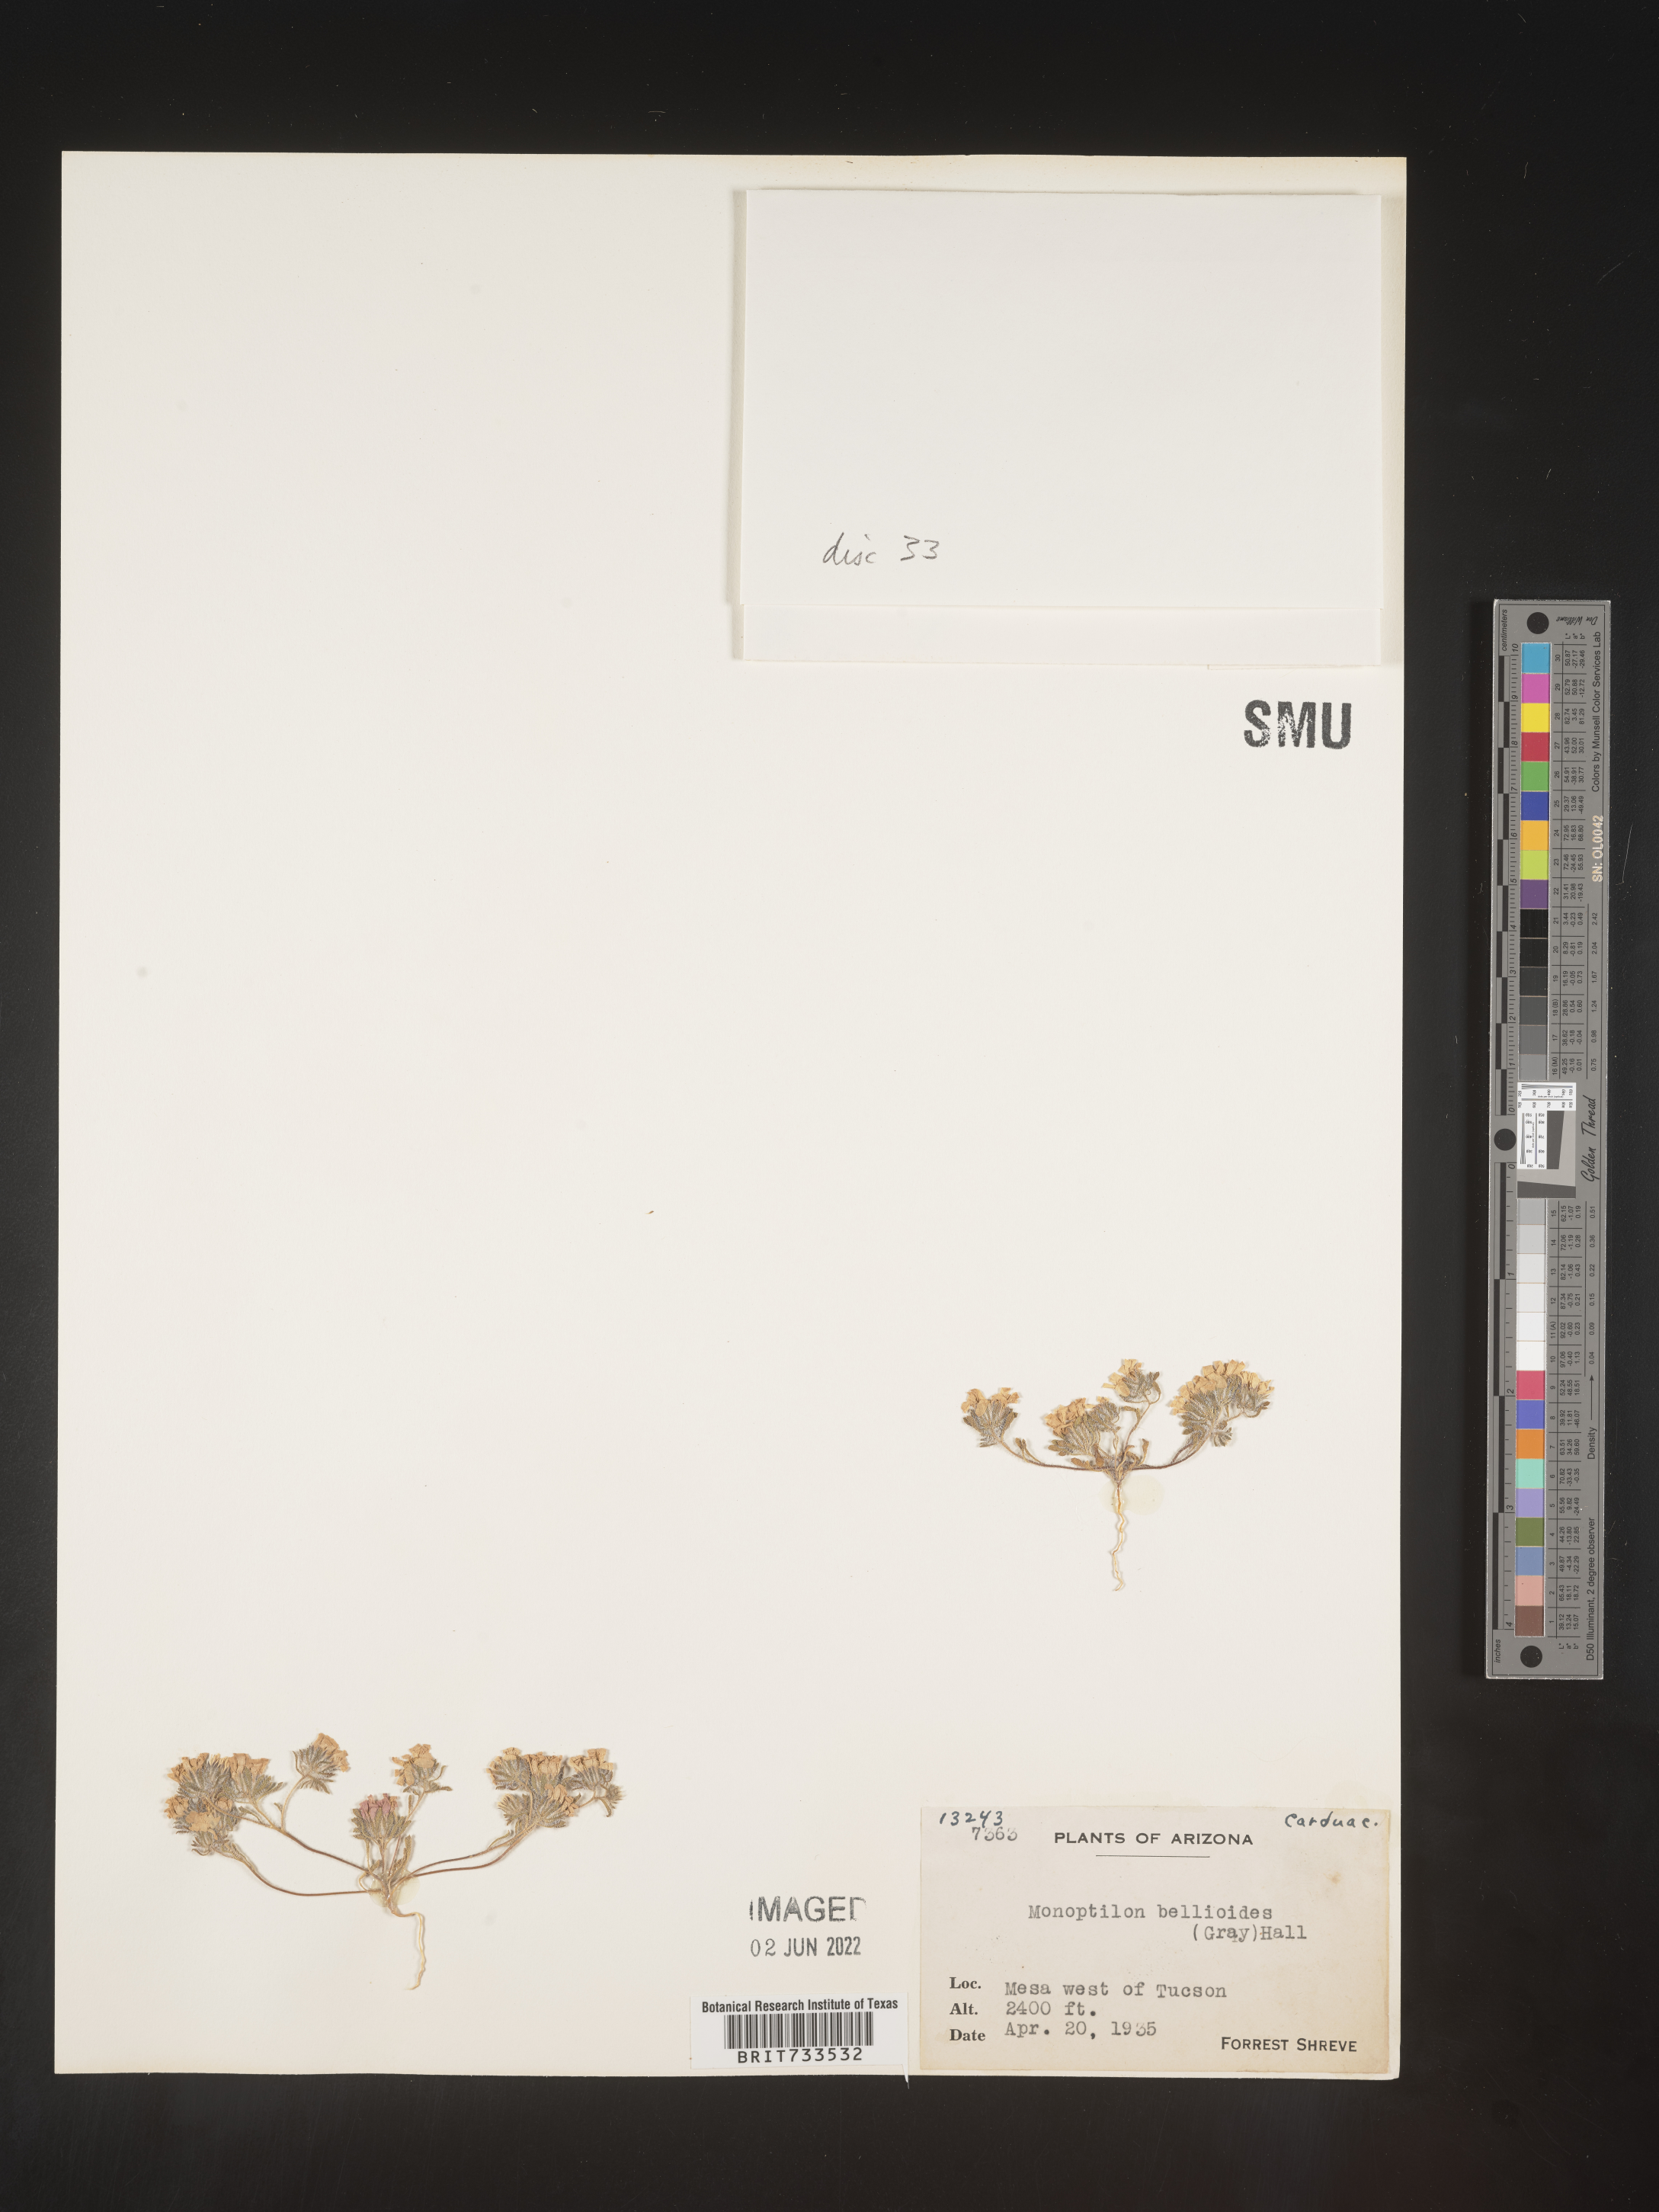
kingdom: Plantae
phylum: Tracheophyta
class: Magnoliopsida
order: Asterales
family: Asteraceae
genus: Monoptilon
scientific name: Monoptilon
